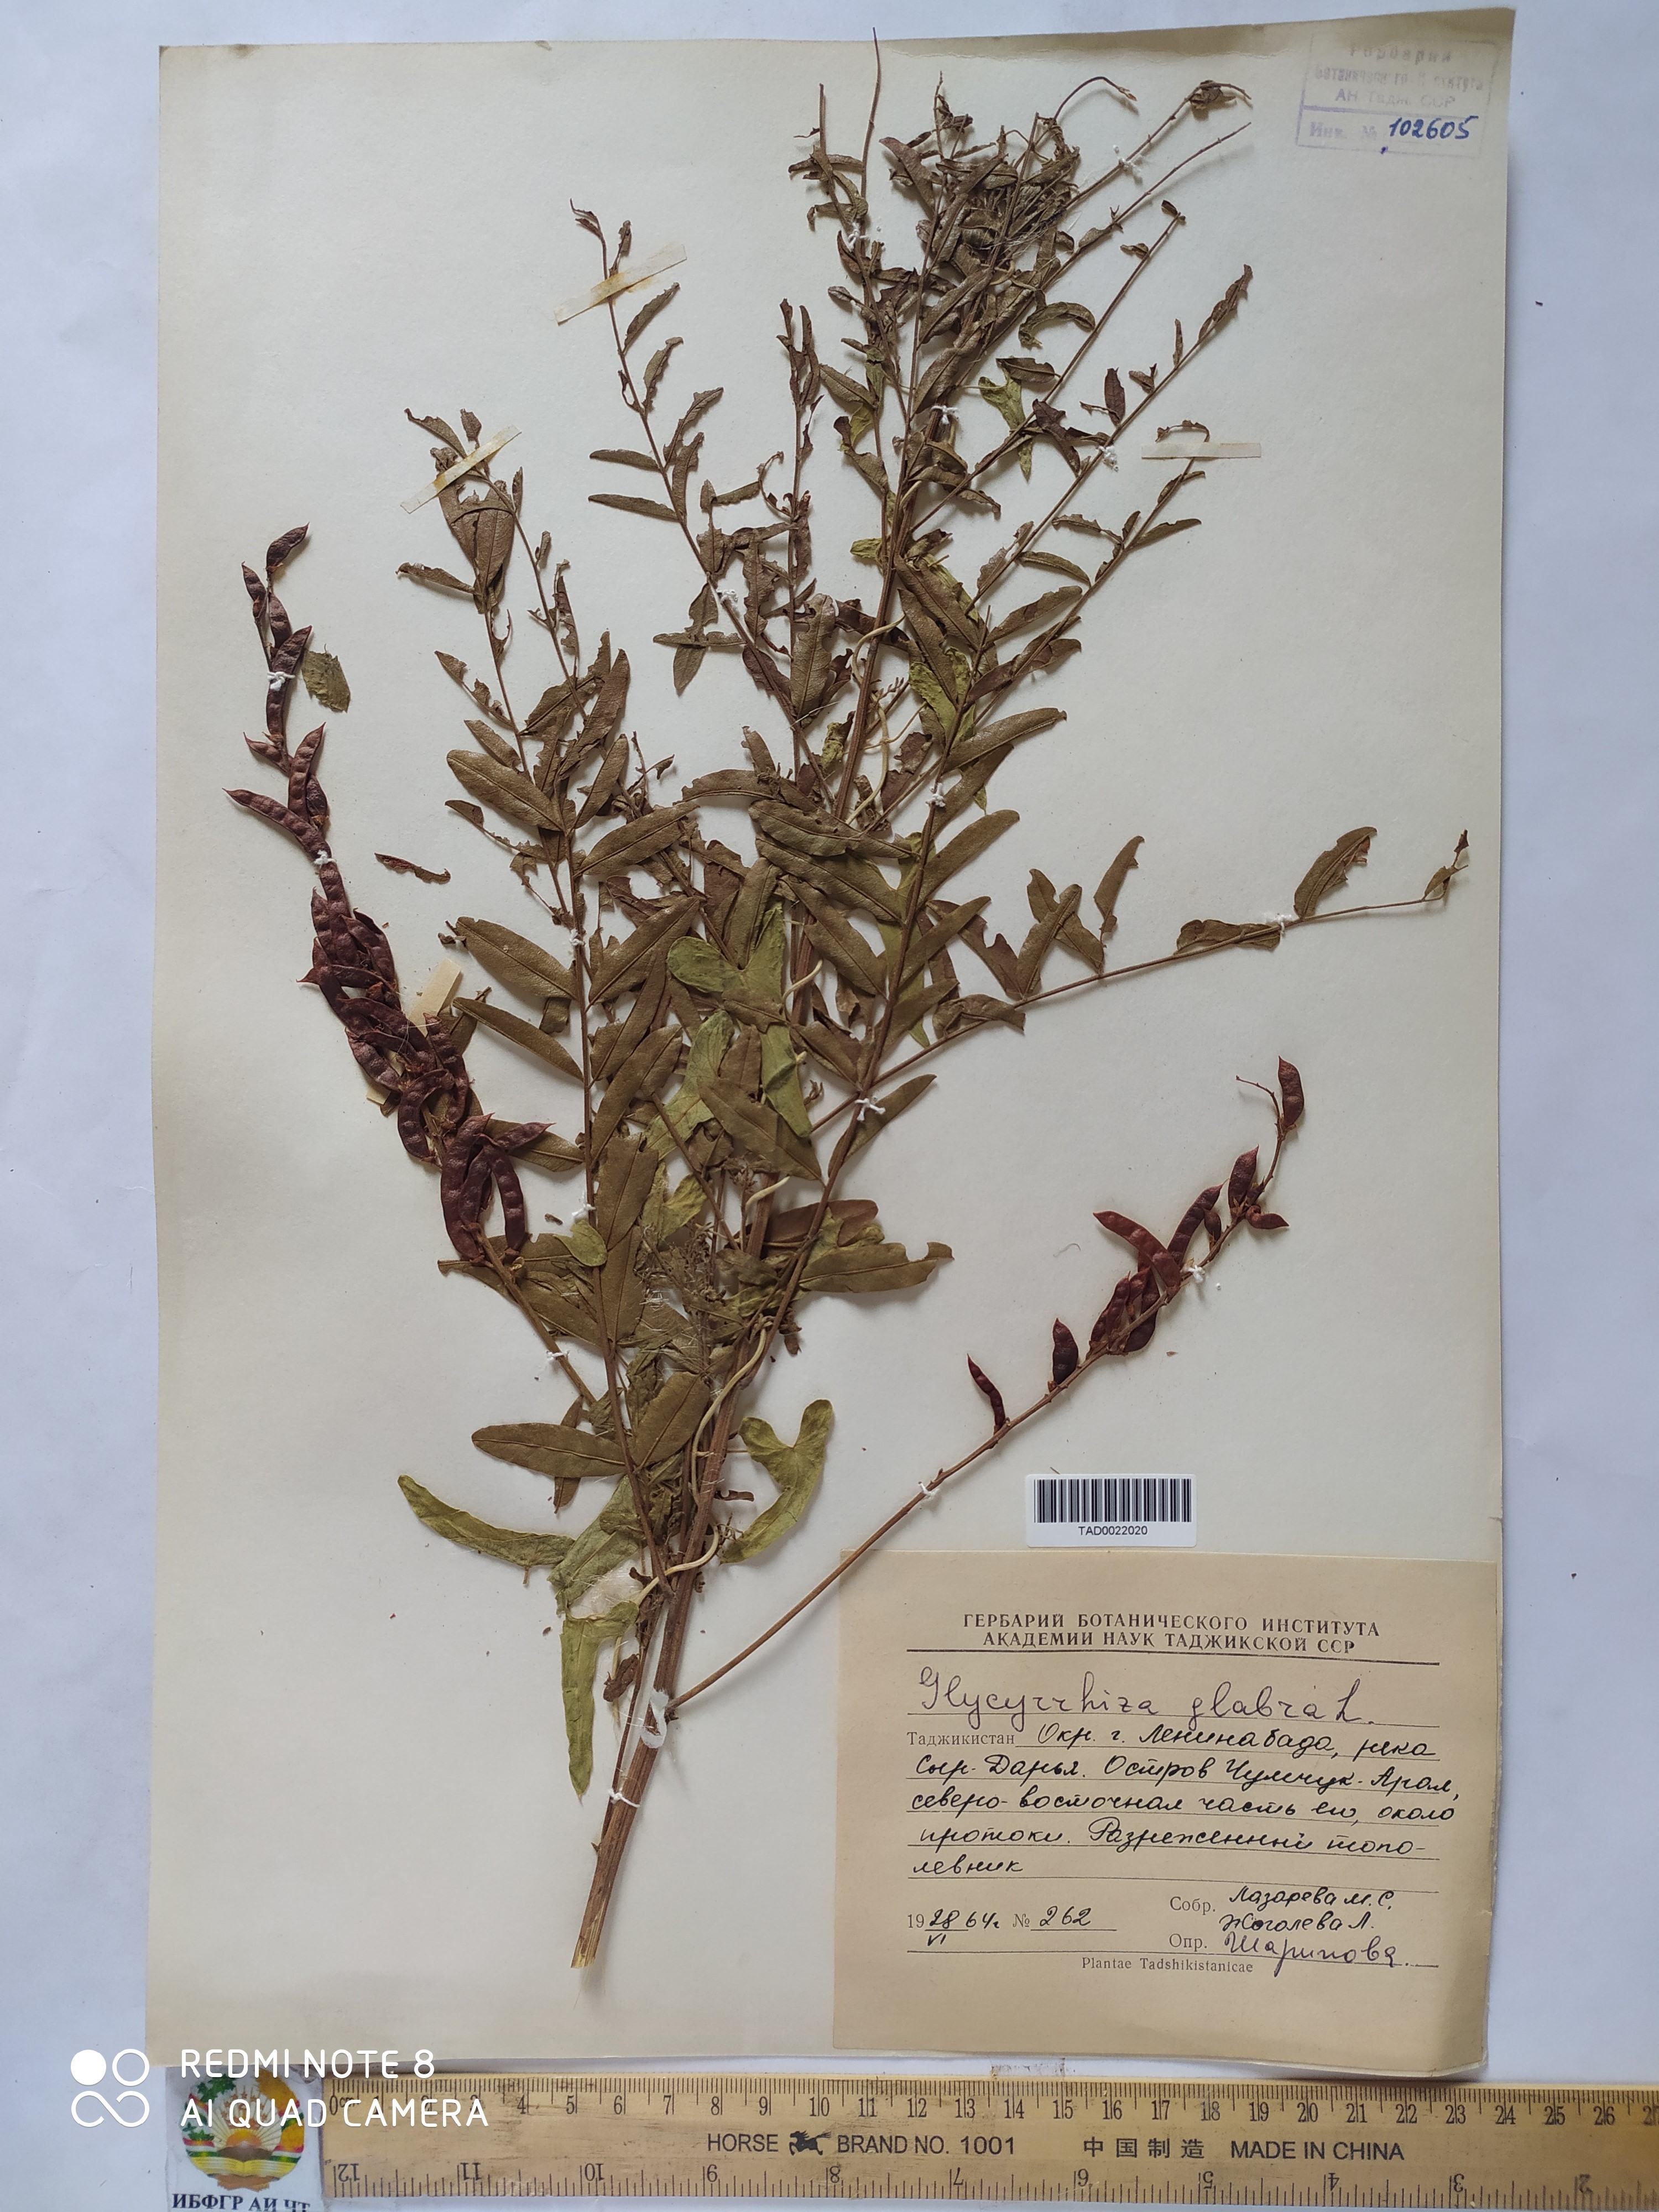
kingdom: Plantae
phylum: Tracheophyta
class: Magnoliopsida
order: Fabales
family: Fabaceae
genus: Glycyrrhiza
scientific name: Glycyrrhiza glabra
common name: Liquorice
